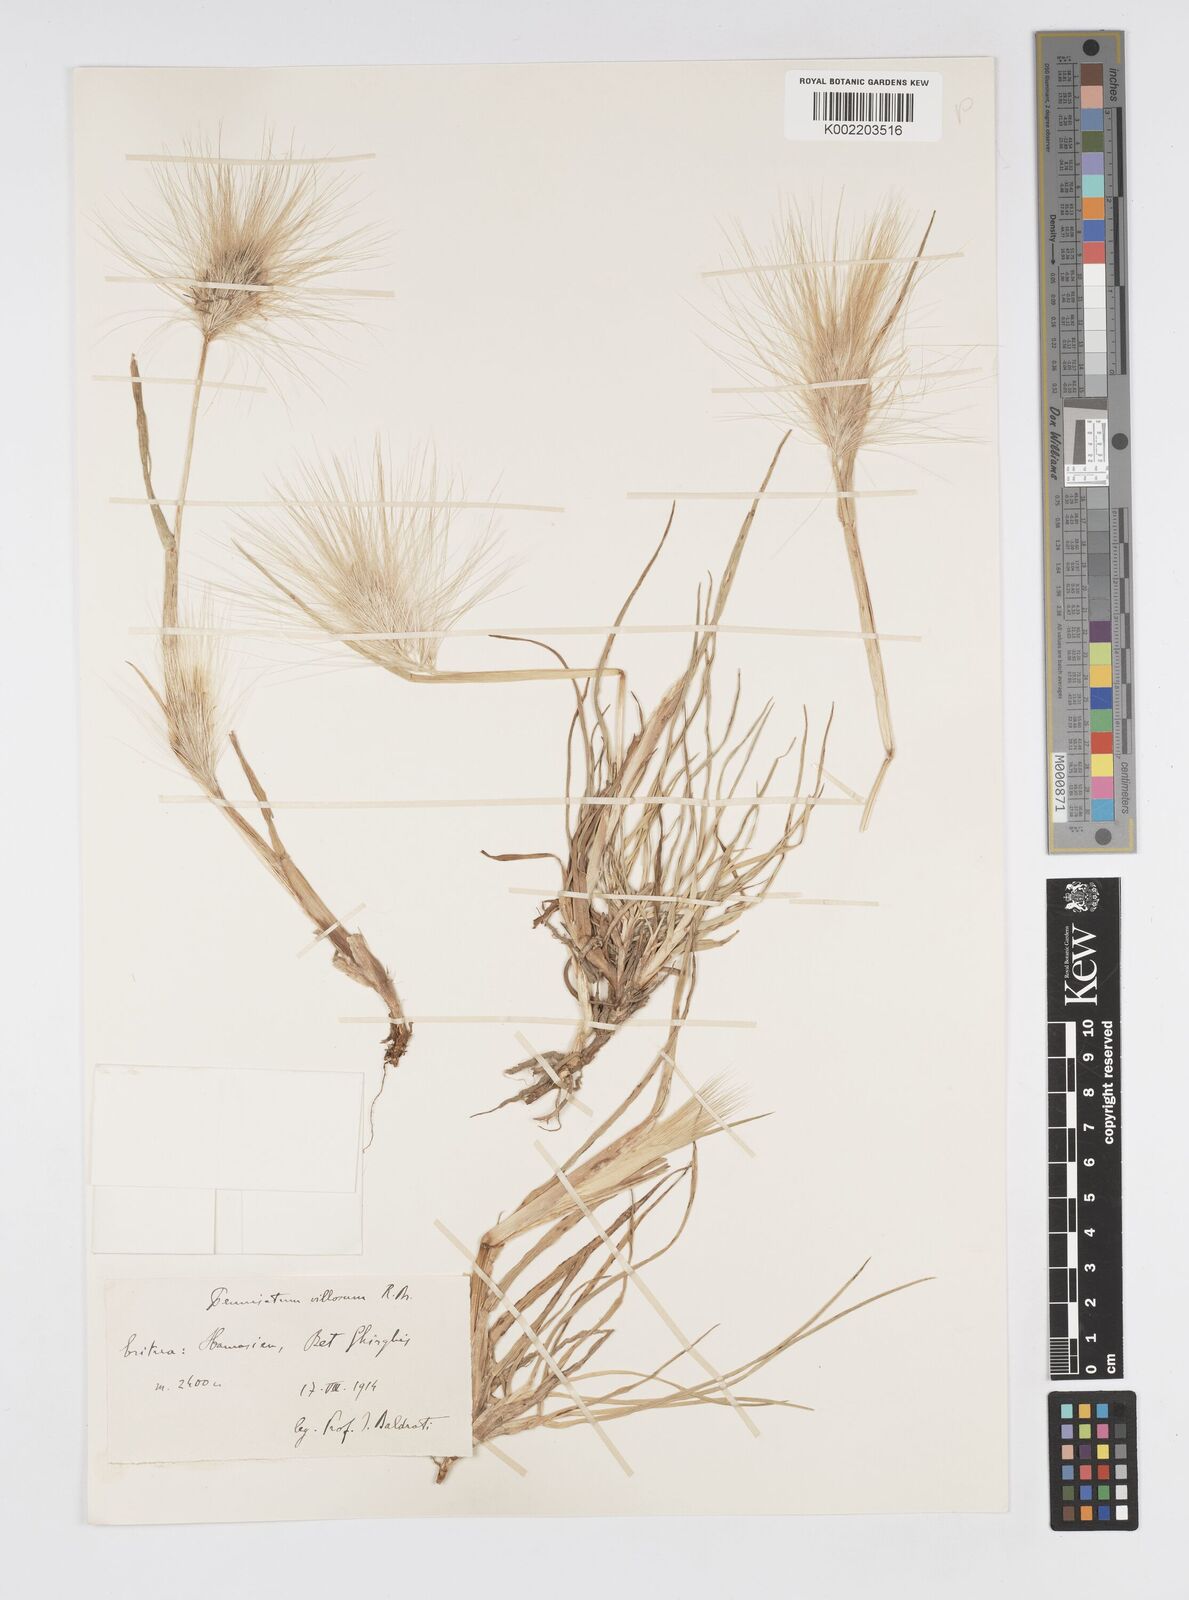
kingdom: Plantae
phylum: Tracheophyta
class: Liliopsida
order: Poales
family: Poaceae
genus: Cenchrus
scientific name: Cenchrus longisetus
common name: Feathertop
